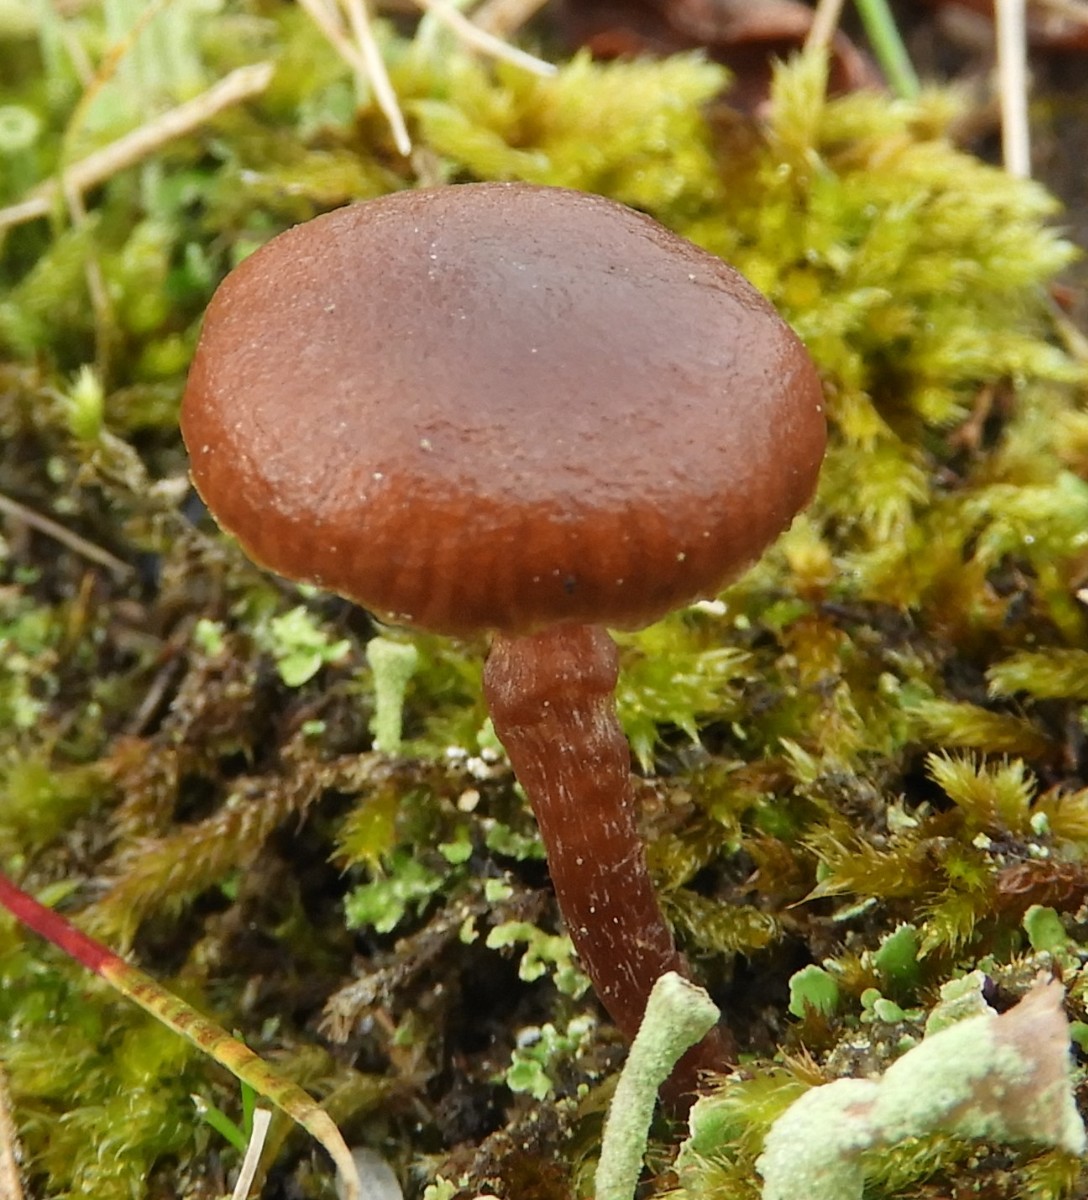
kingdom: Fungi
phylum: Basidiomycota
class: Agaricomycetes
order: Agaricales
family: Strophariaceae
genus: Deconica
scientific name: Deconica montana
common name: rødbrun stråhat
